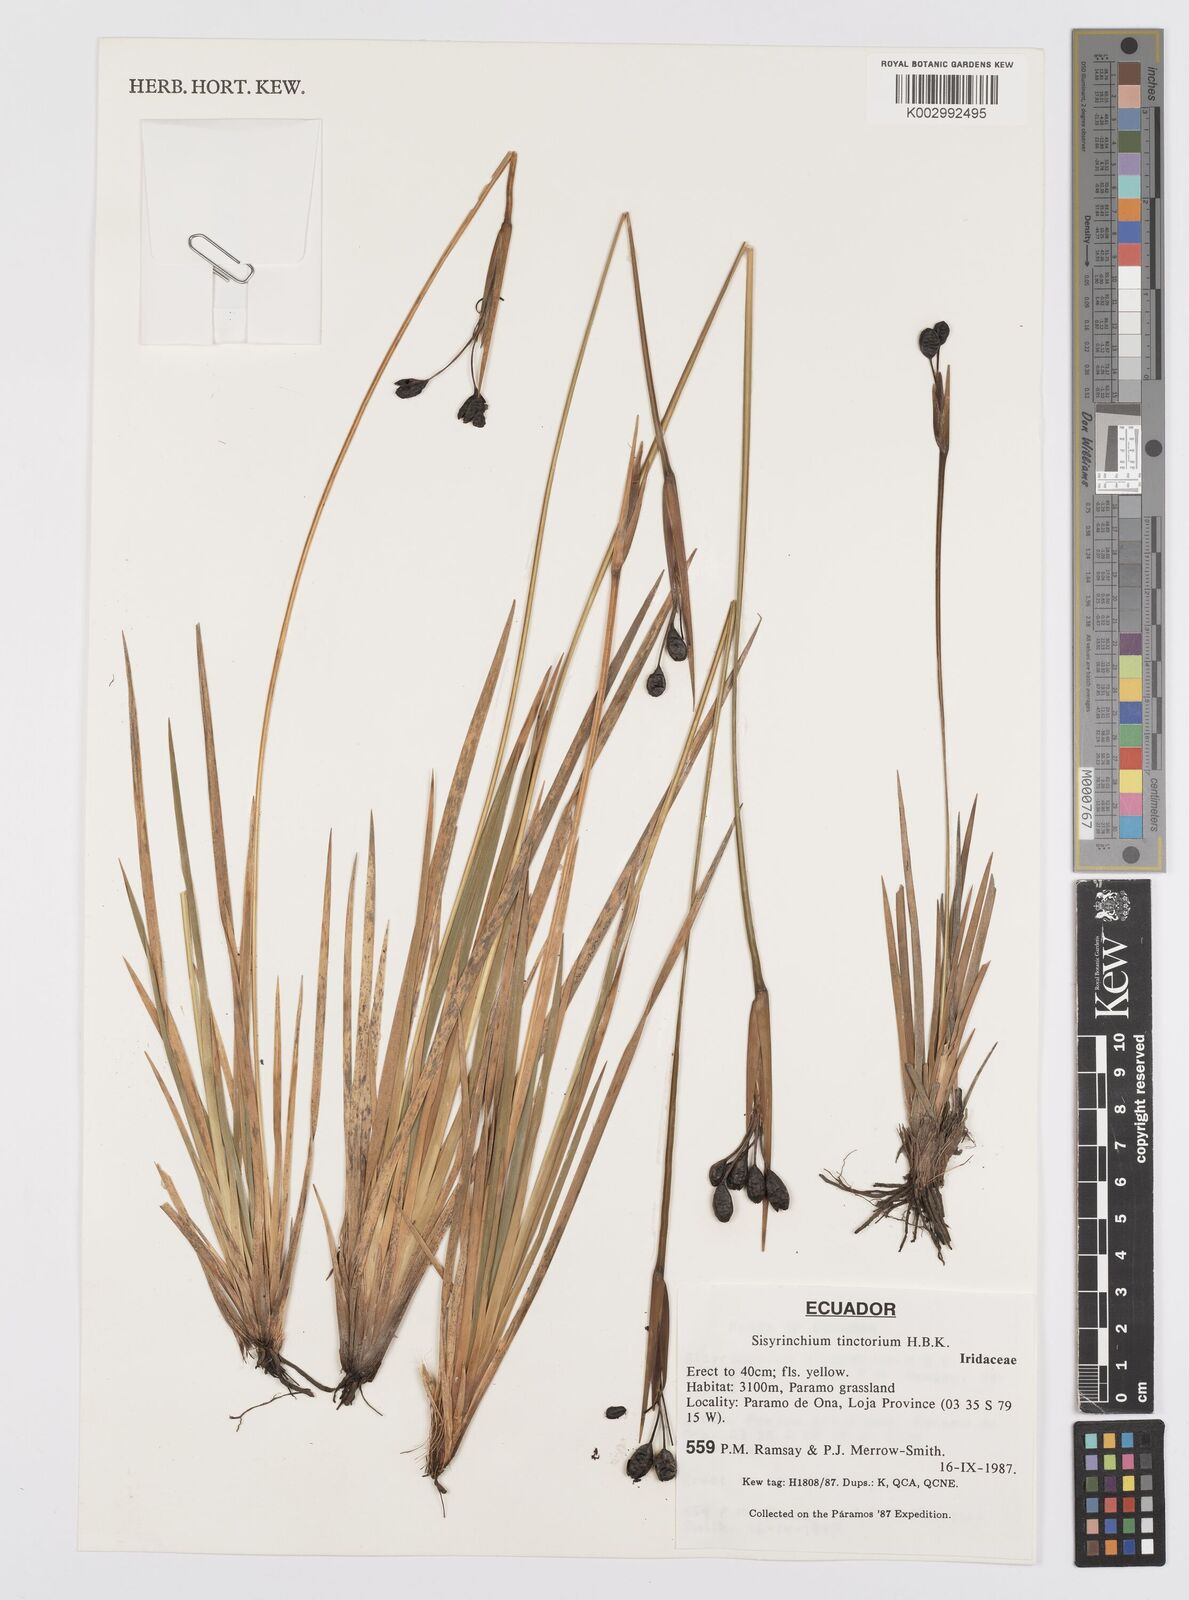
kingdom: Plantae
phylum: Tracheophyta
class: Liliopsida
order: Asparagales
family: Iridaceae
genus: Sisyrinchium
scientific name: Sisyrinchium tinctorium
